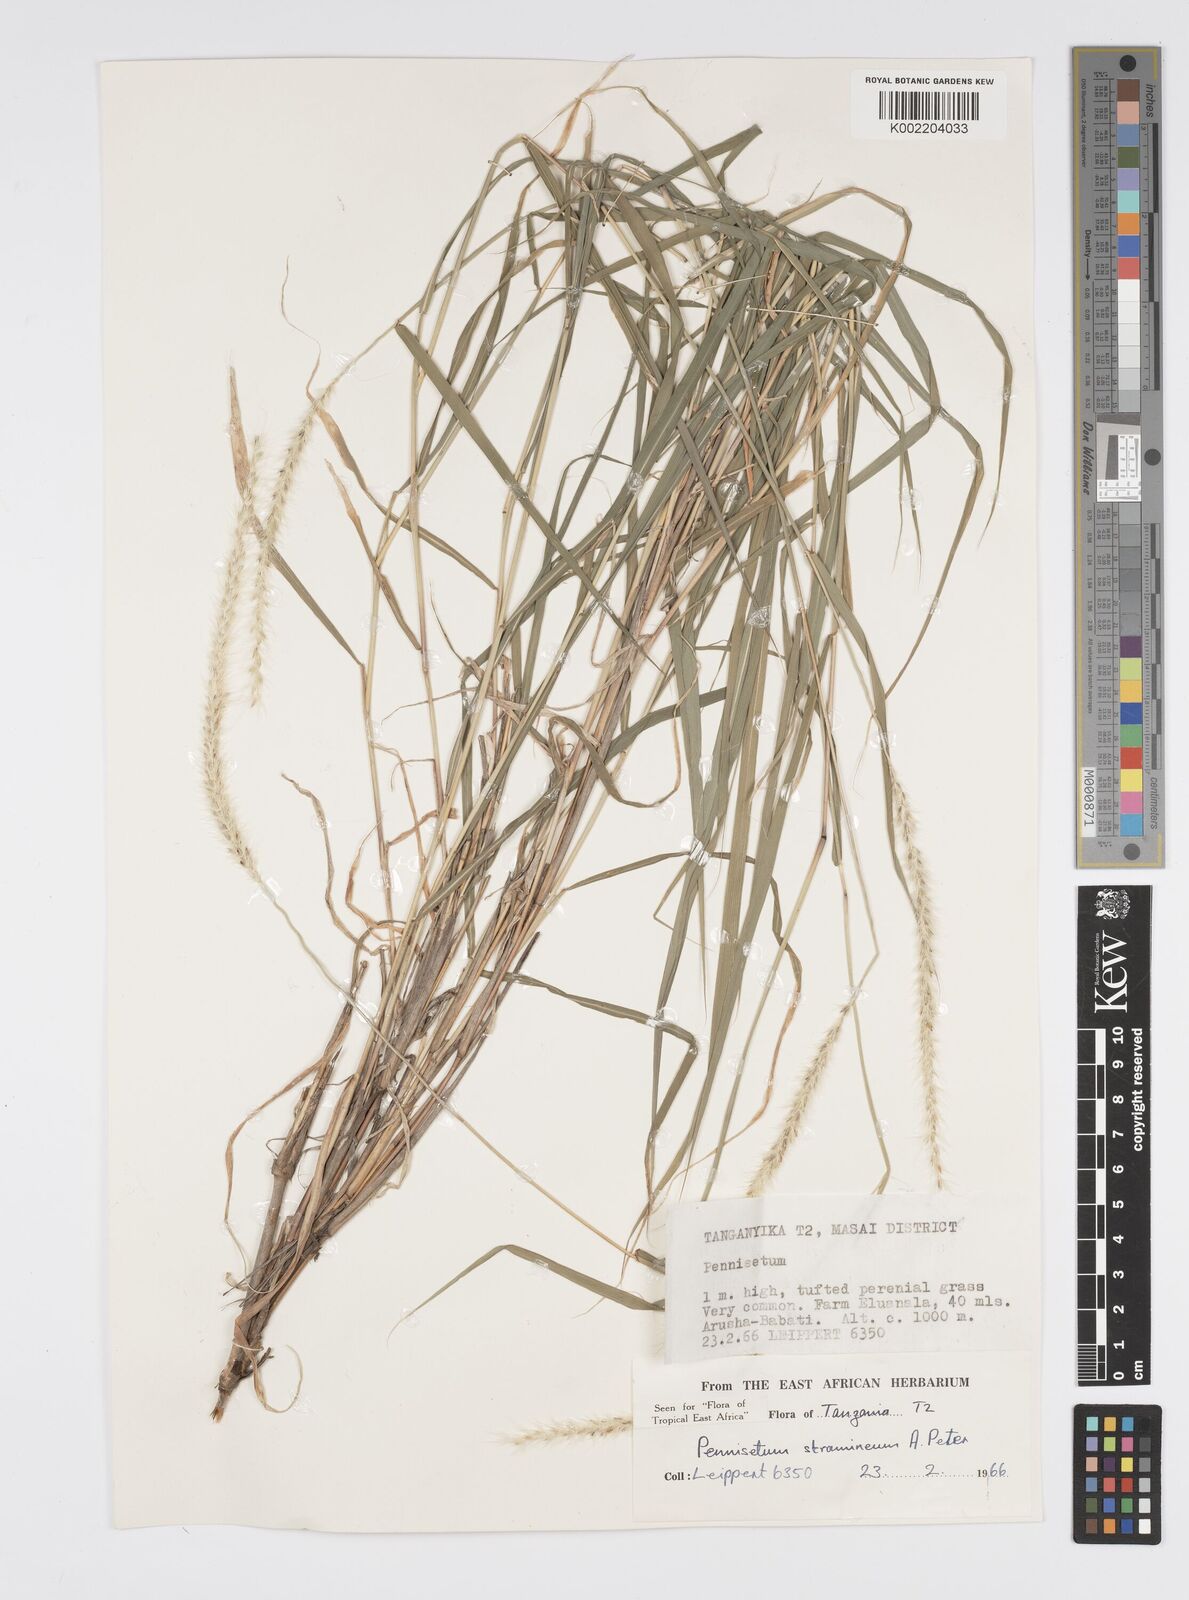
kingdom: Plantae
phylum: Tracheophyta
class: Liliopsida
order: Poales
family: Poaceae
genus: Cenchrus
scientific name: Cenchrus stramineus
